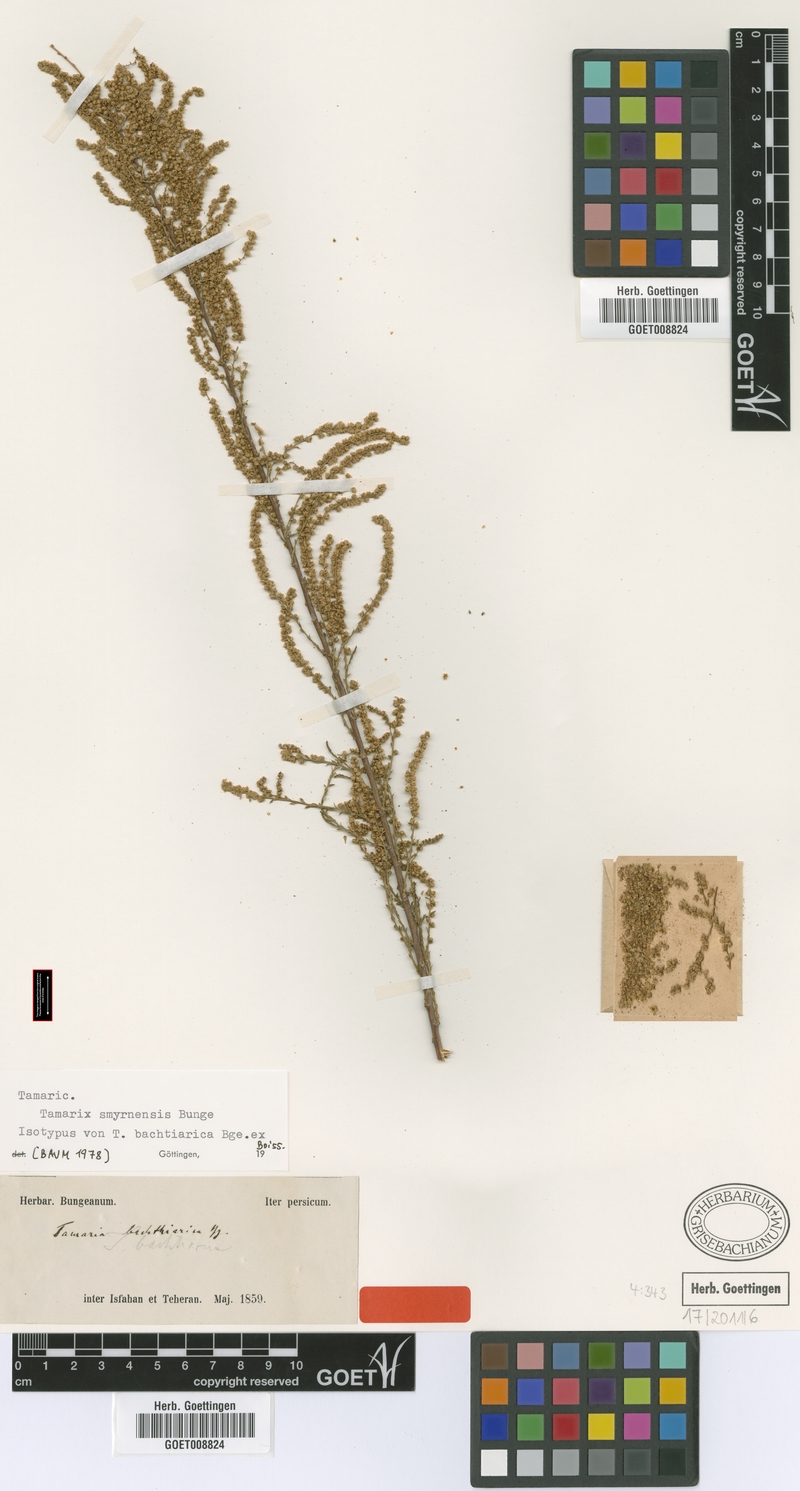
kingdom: Plantae
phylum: Tracheophyta
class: Magnoliopsida
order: Caryophyllales
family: Tamaricaceae
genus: Tamarix
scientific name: Tamarix smyrnensis
